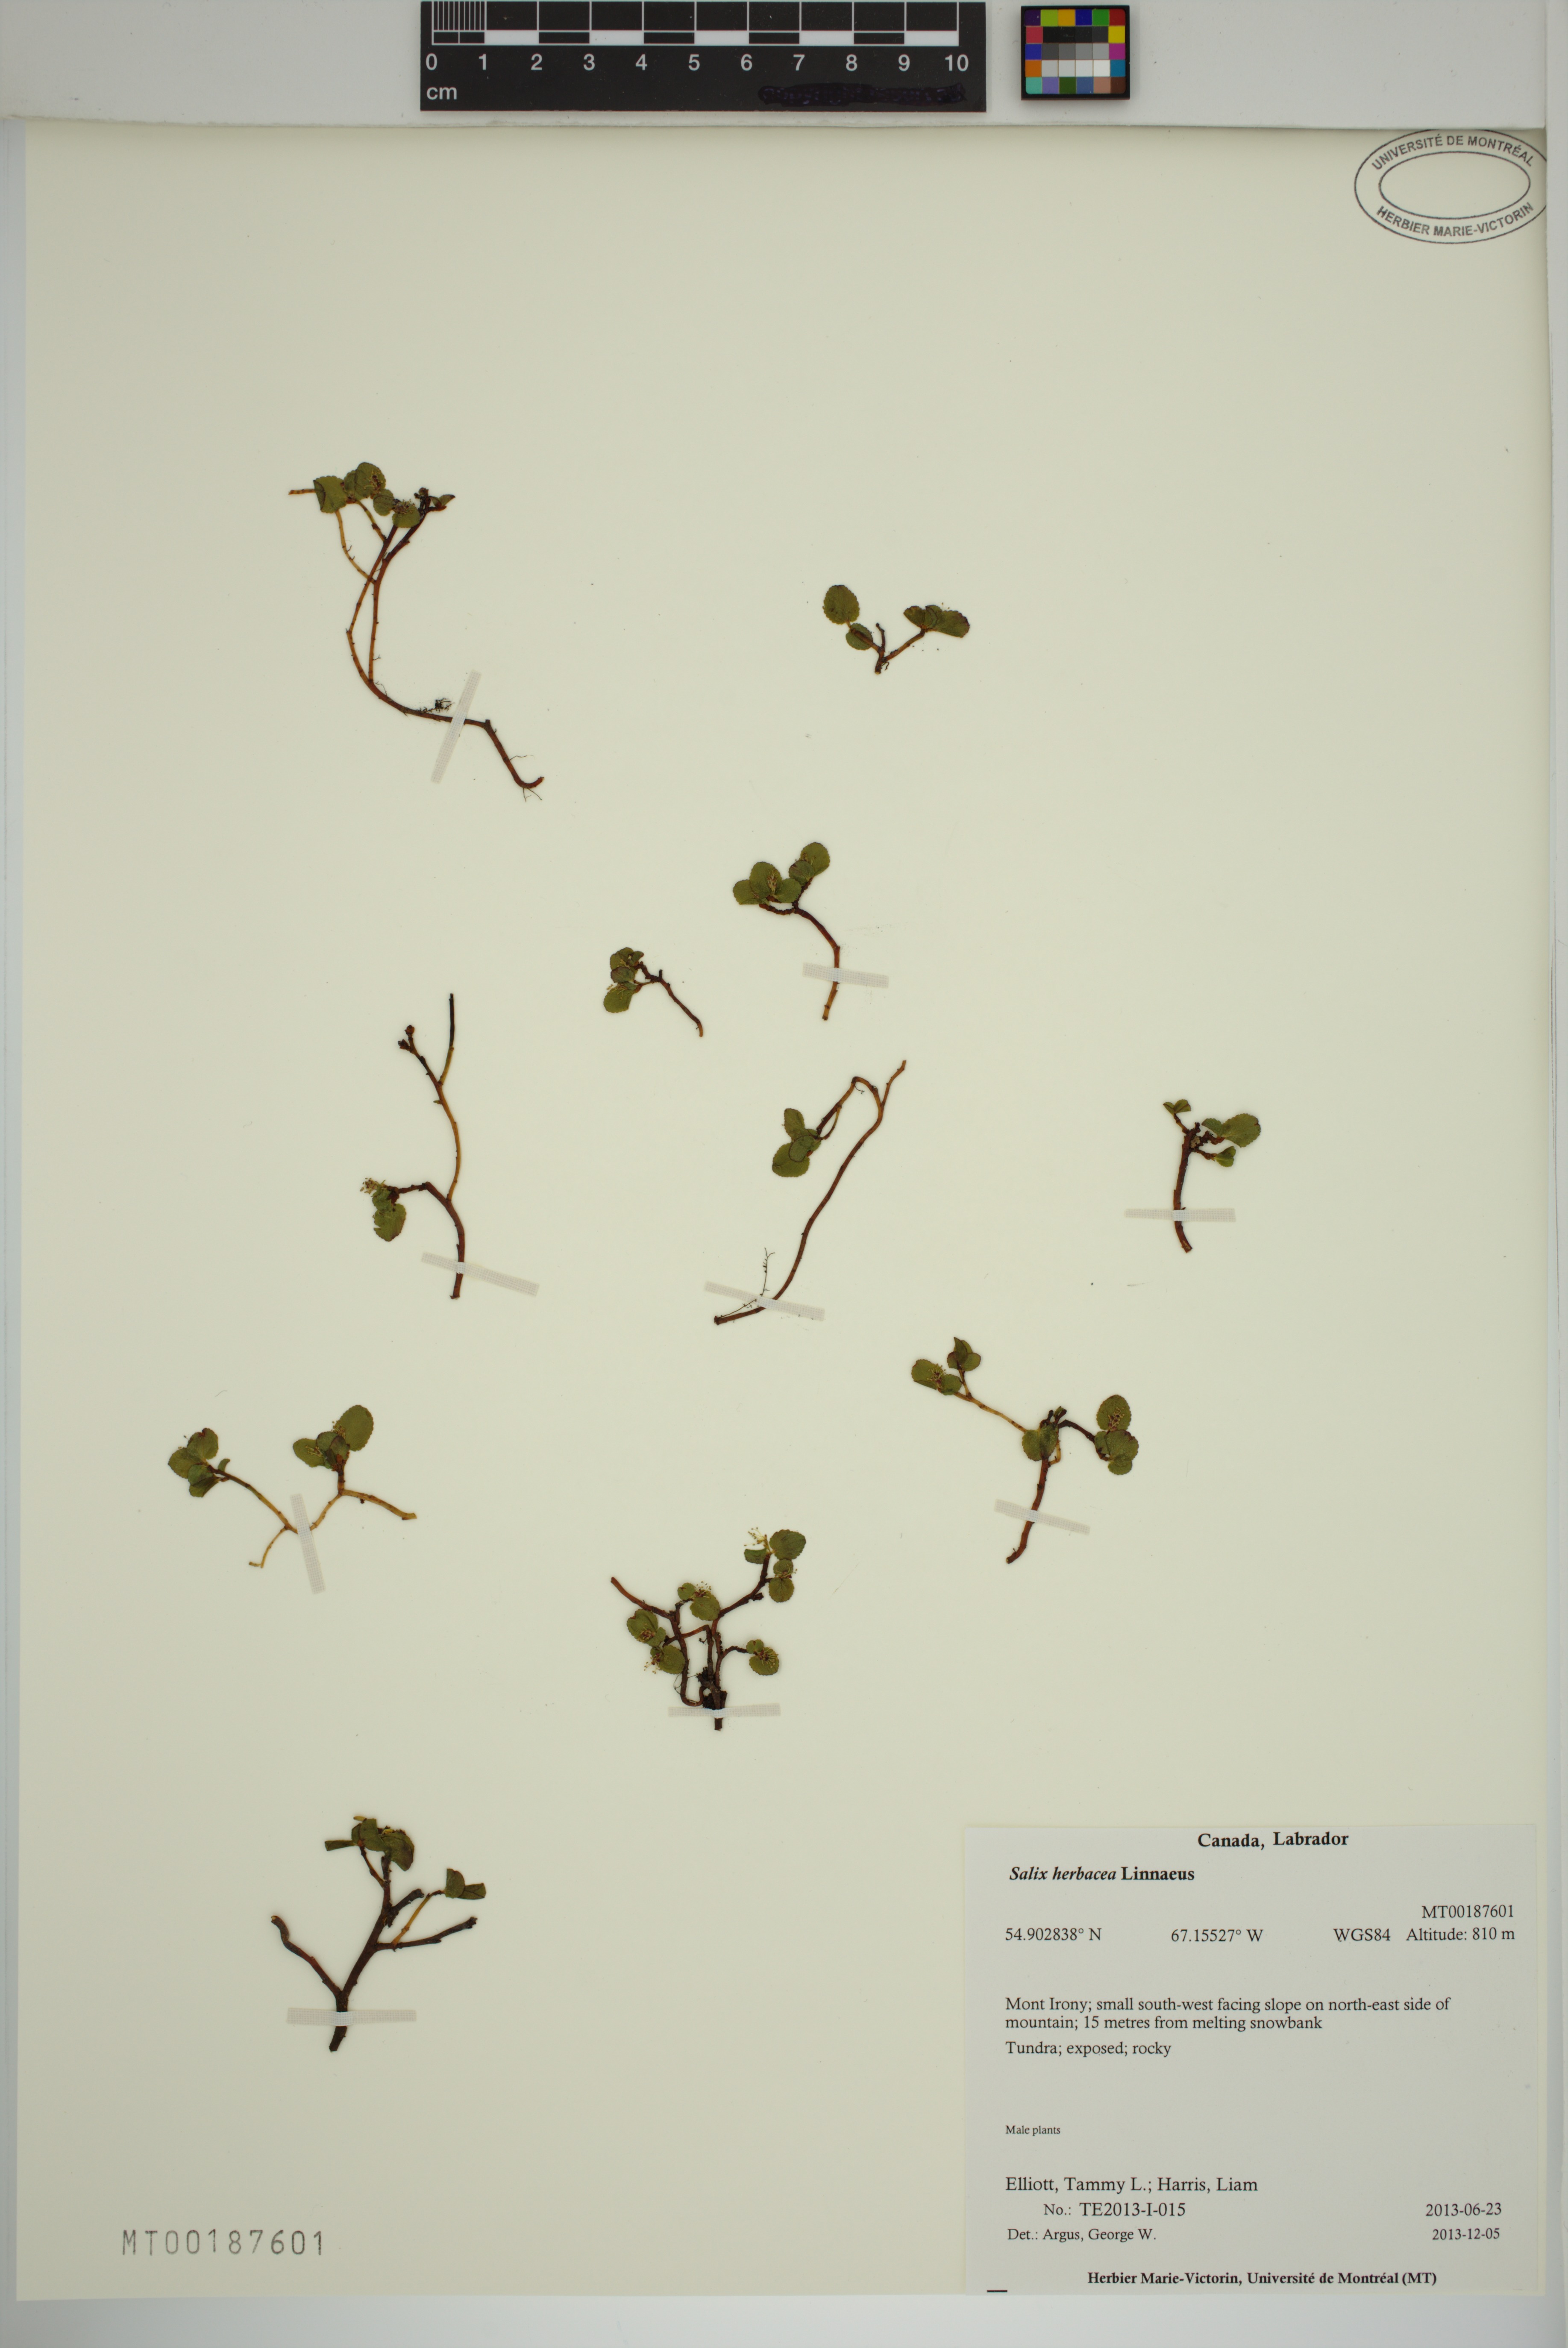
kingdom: Plantae
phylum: Tracheophyta
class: Magnoliopsida
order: Malpighiales
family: Salicaceae
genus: Salix
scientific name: Salix herbacea
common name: Dwarf willow
